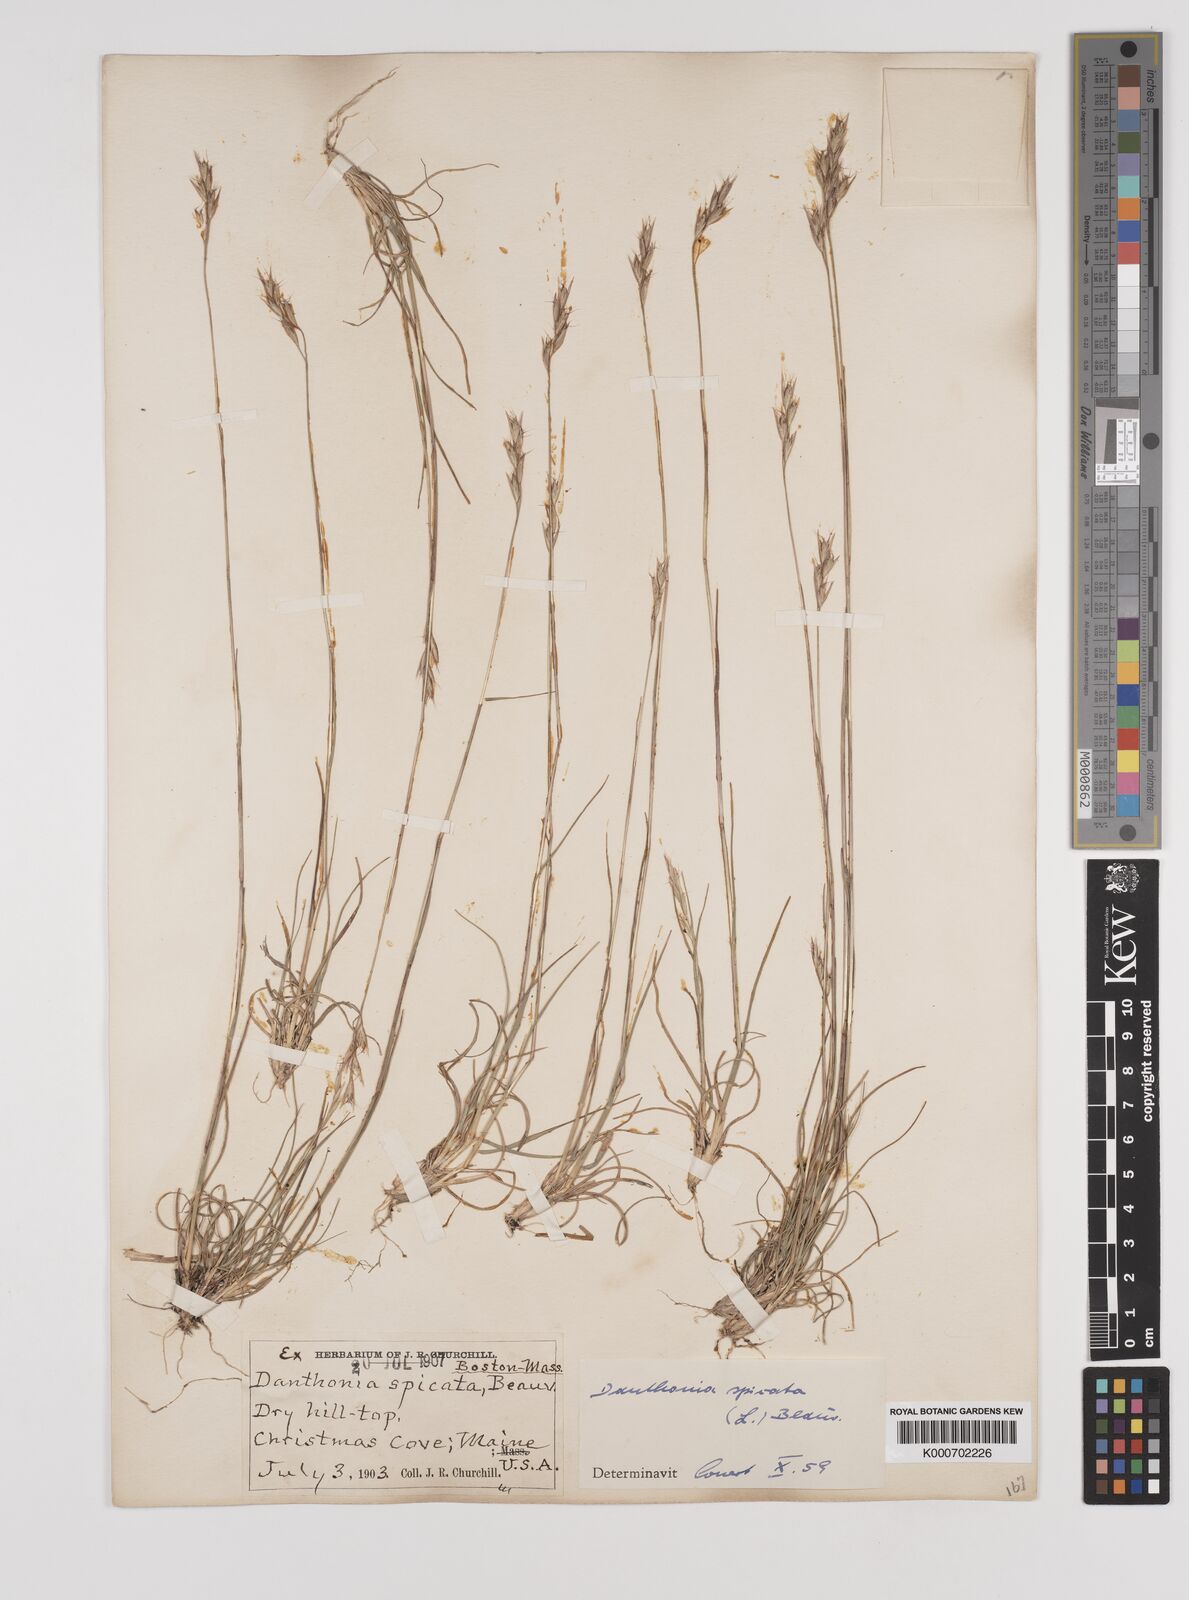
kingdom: Plantae
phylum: Tracheophyta
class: Liliopsida
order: Poales
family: Poaceae
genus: Danthonia
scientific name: Danthonia spicata
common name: Common wild oatgrass
